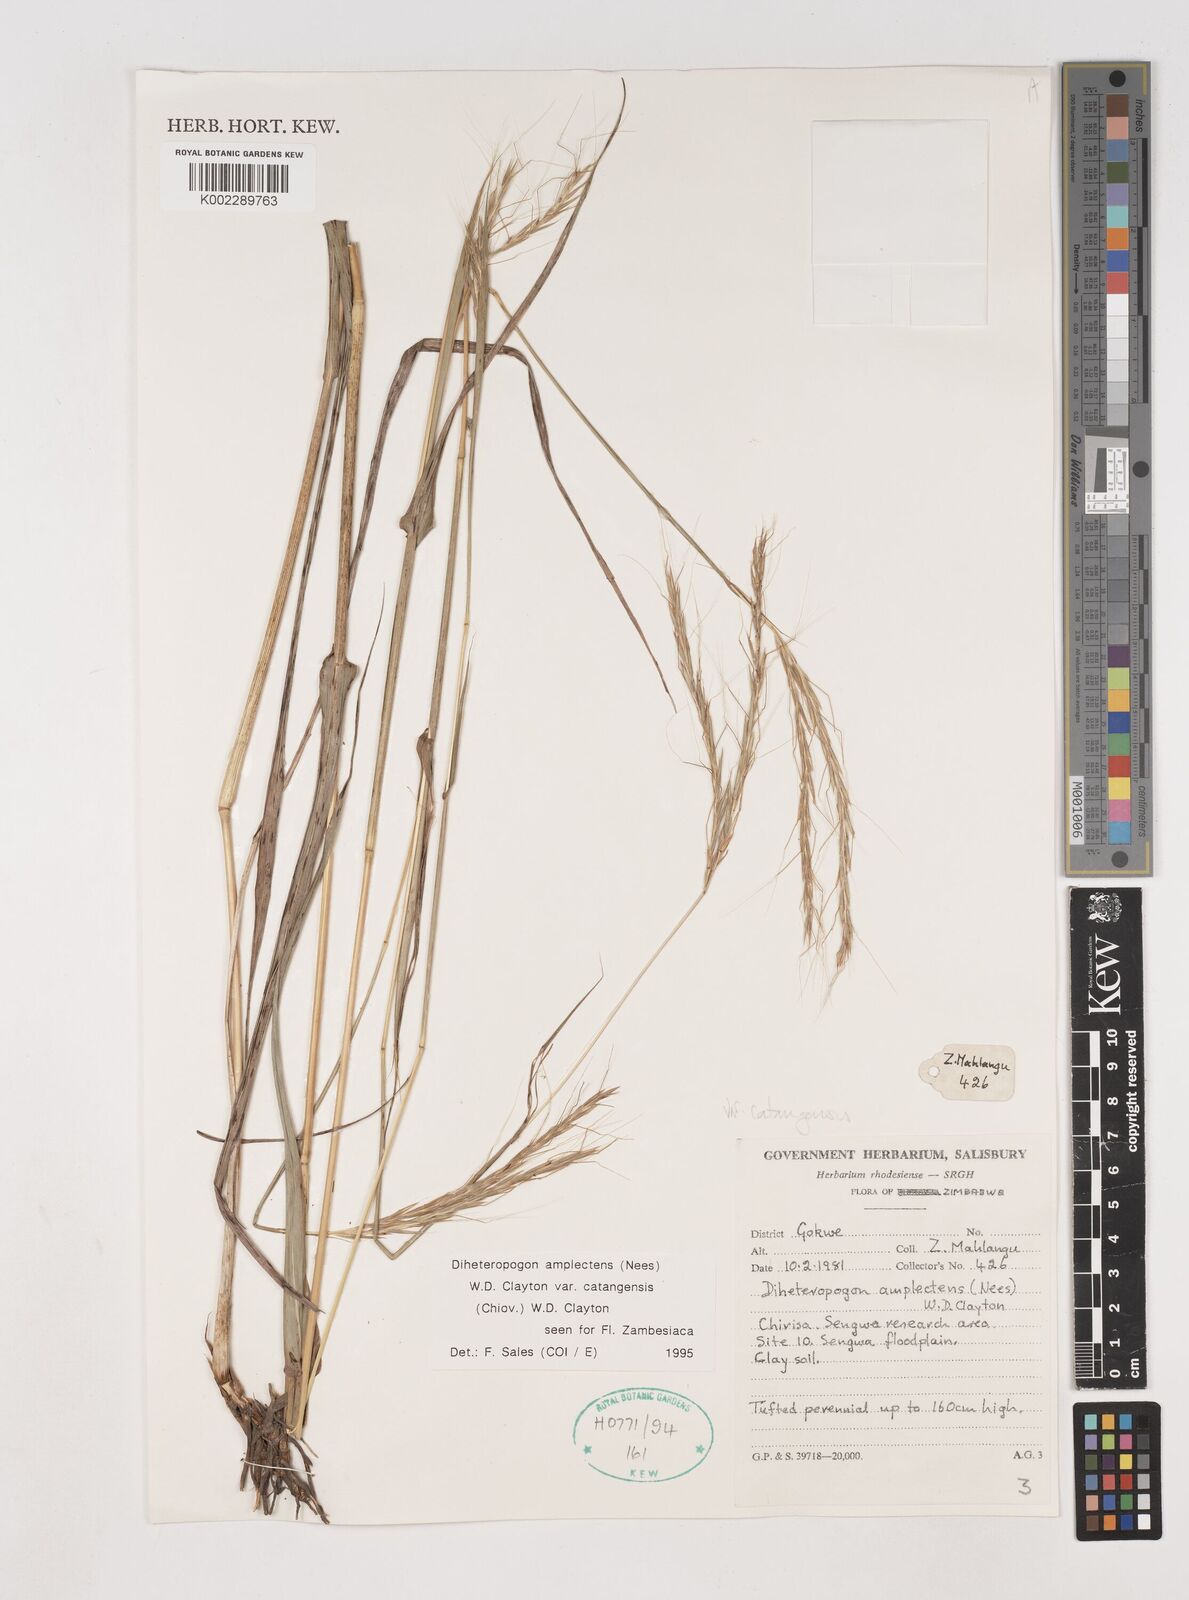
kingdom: Plantae
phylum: Tracheophyta
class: Liliopsida
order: Poales
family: Poaceae
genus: Diheteropogon
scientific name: Diheteropogon amplectens
